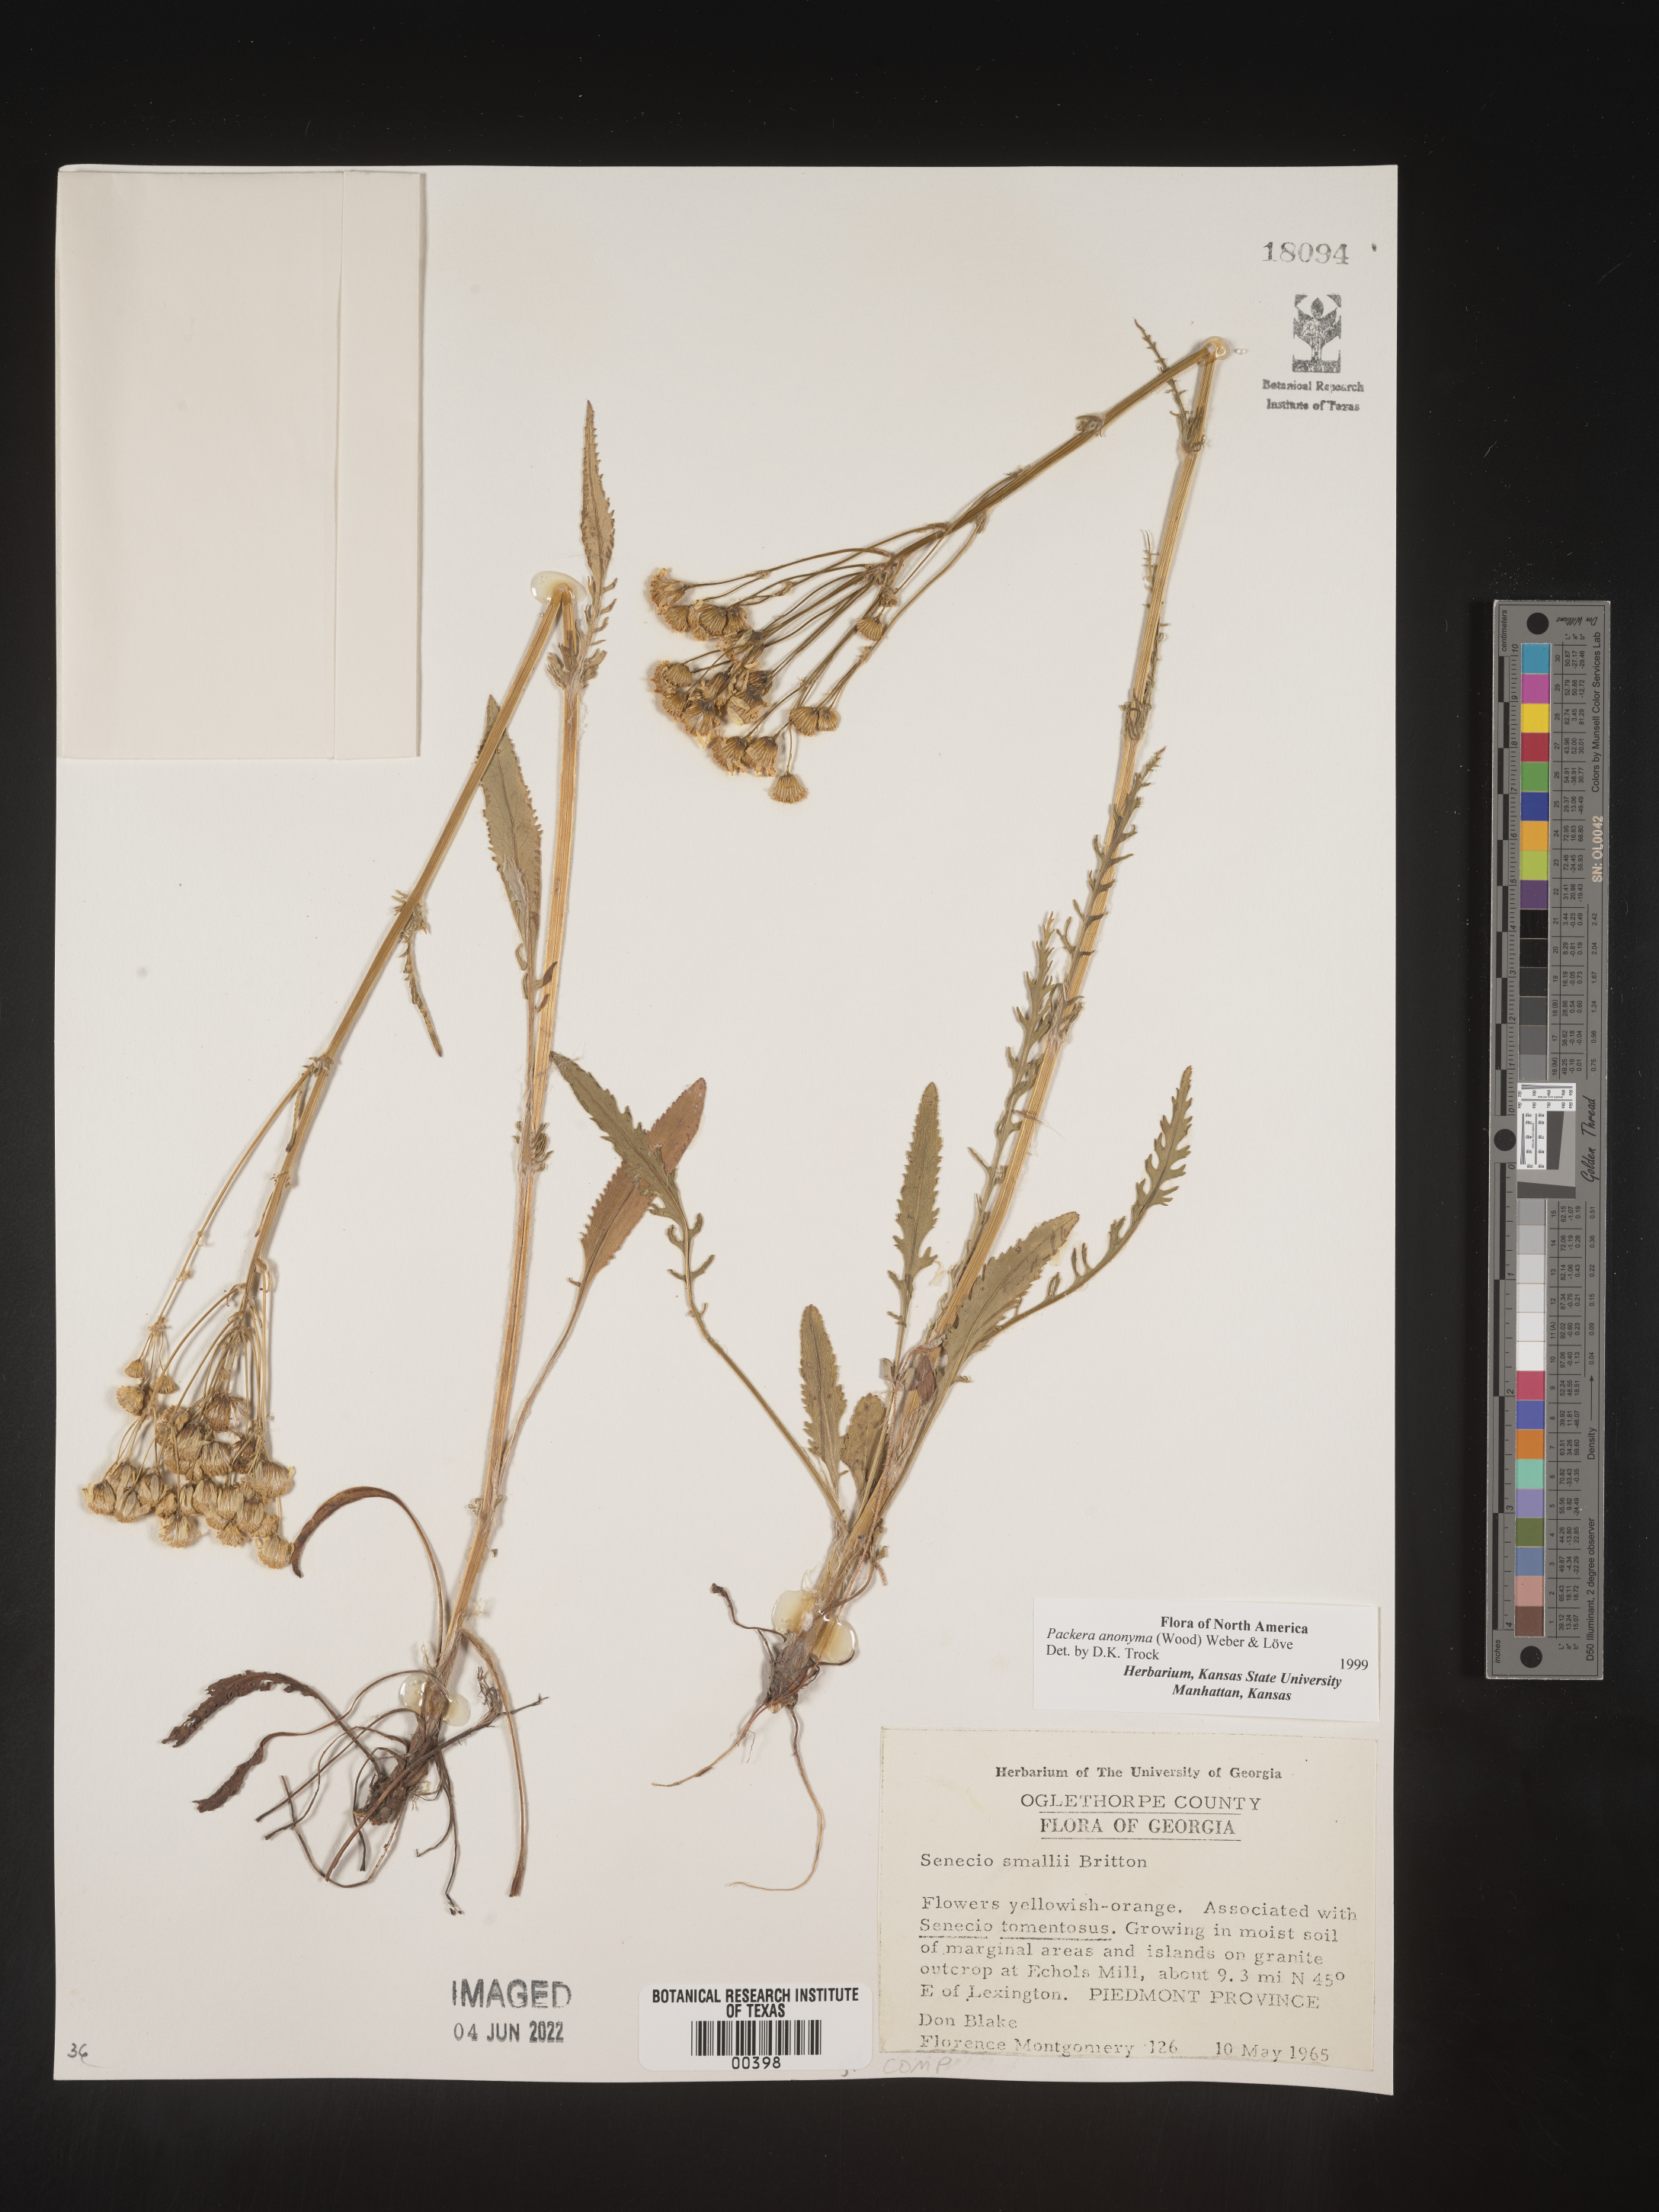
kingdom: Plantae
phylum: Tracheophyta
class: Magnoliopsida
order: Asterales
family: Asteraceae
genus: Packera
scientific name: Packera anonyma
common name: Small ragwort
